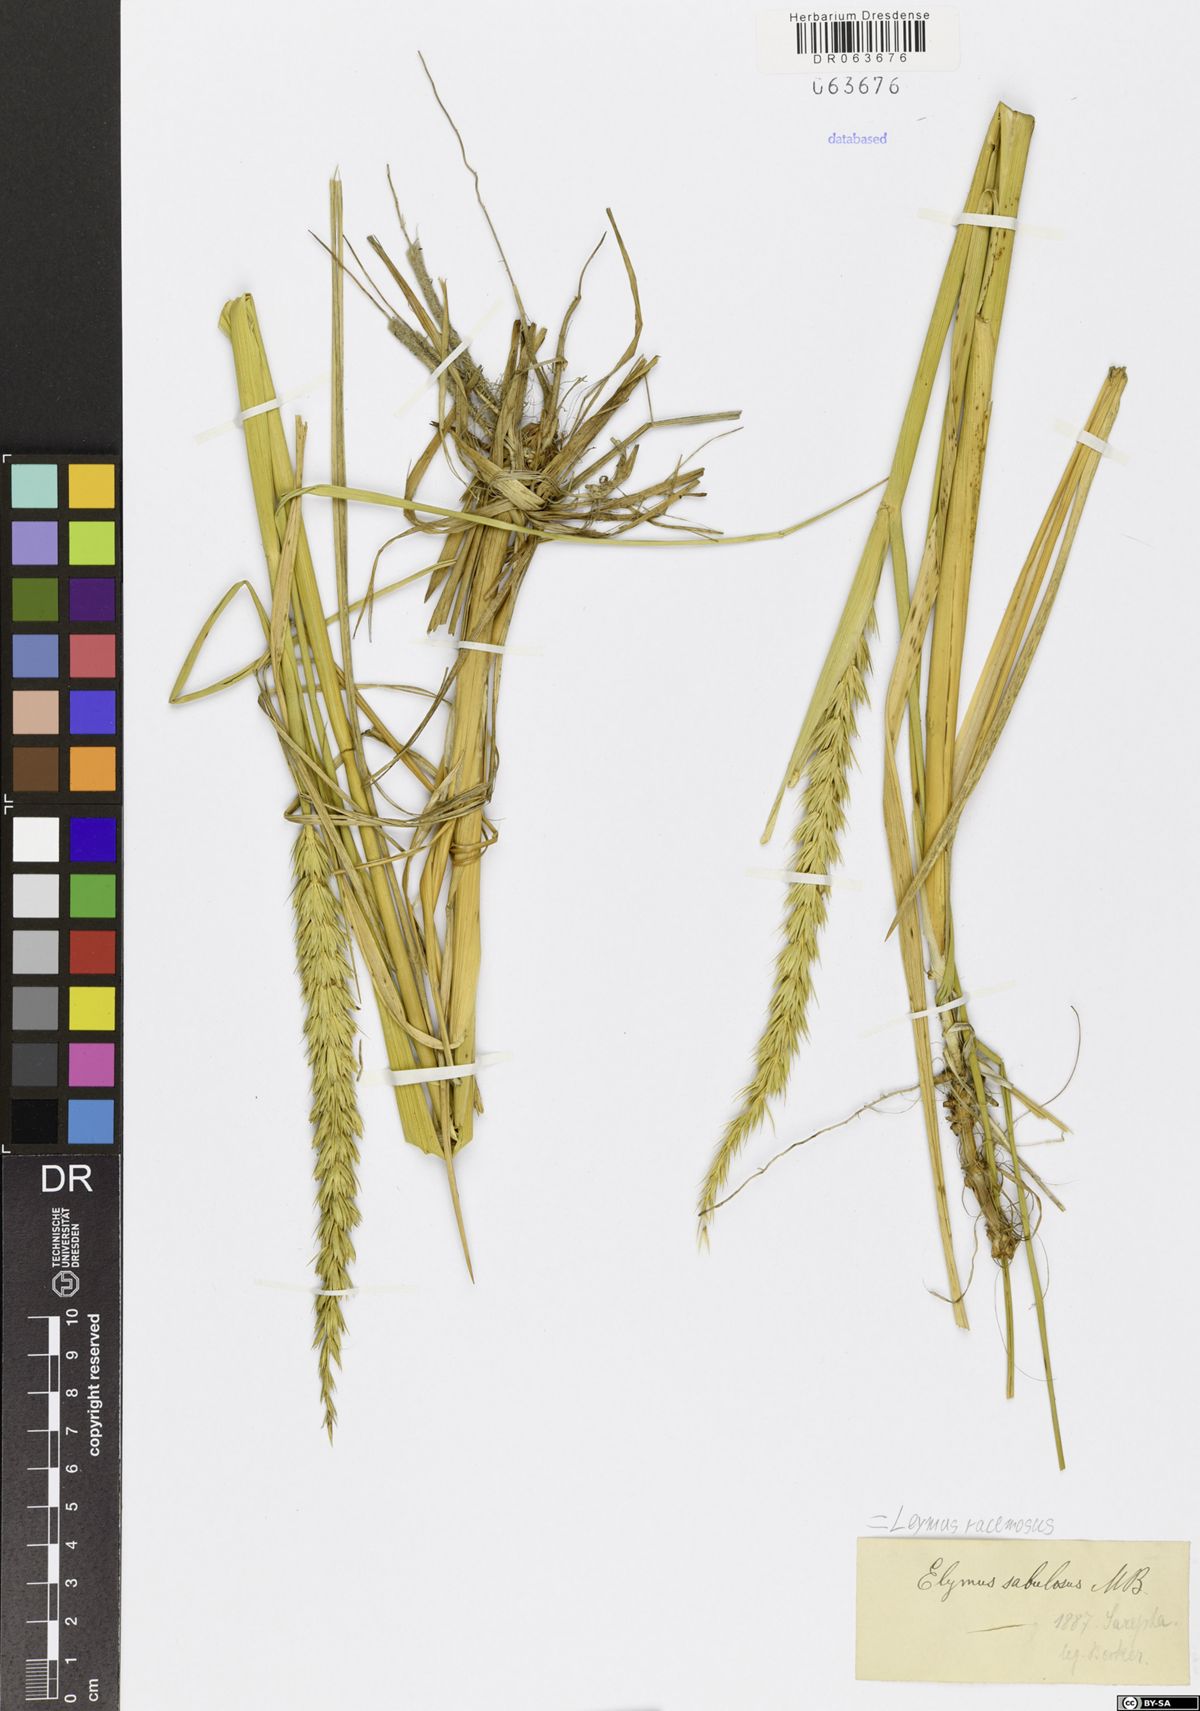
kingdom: Plantae
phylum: Tracheophyta
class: Liliopsida
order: Poales
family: Poaceae
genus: Leymus
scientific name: Leymus racemosus
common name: Mammoth wildrye
